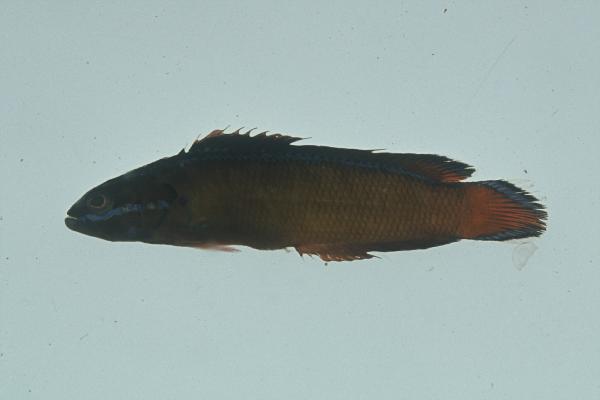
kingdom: Animalia
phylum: Chordata
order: Perciformes
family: Pseudochromidae
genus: Pseudochromis
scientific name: Pseudochromis dutoiti
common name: Dutoiti
